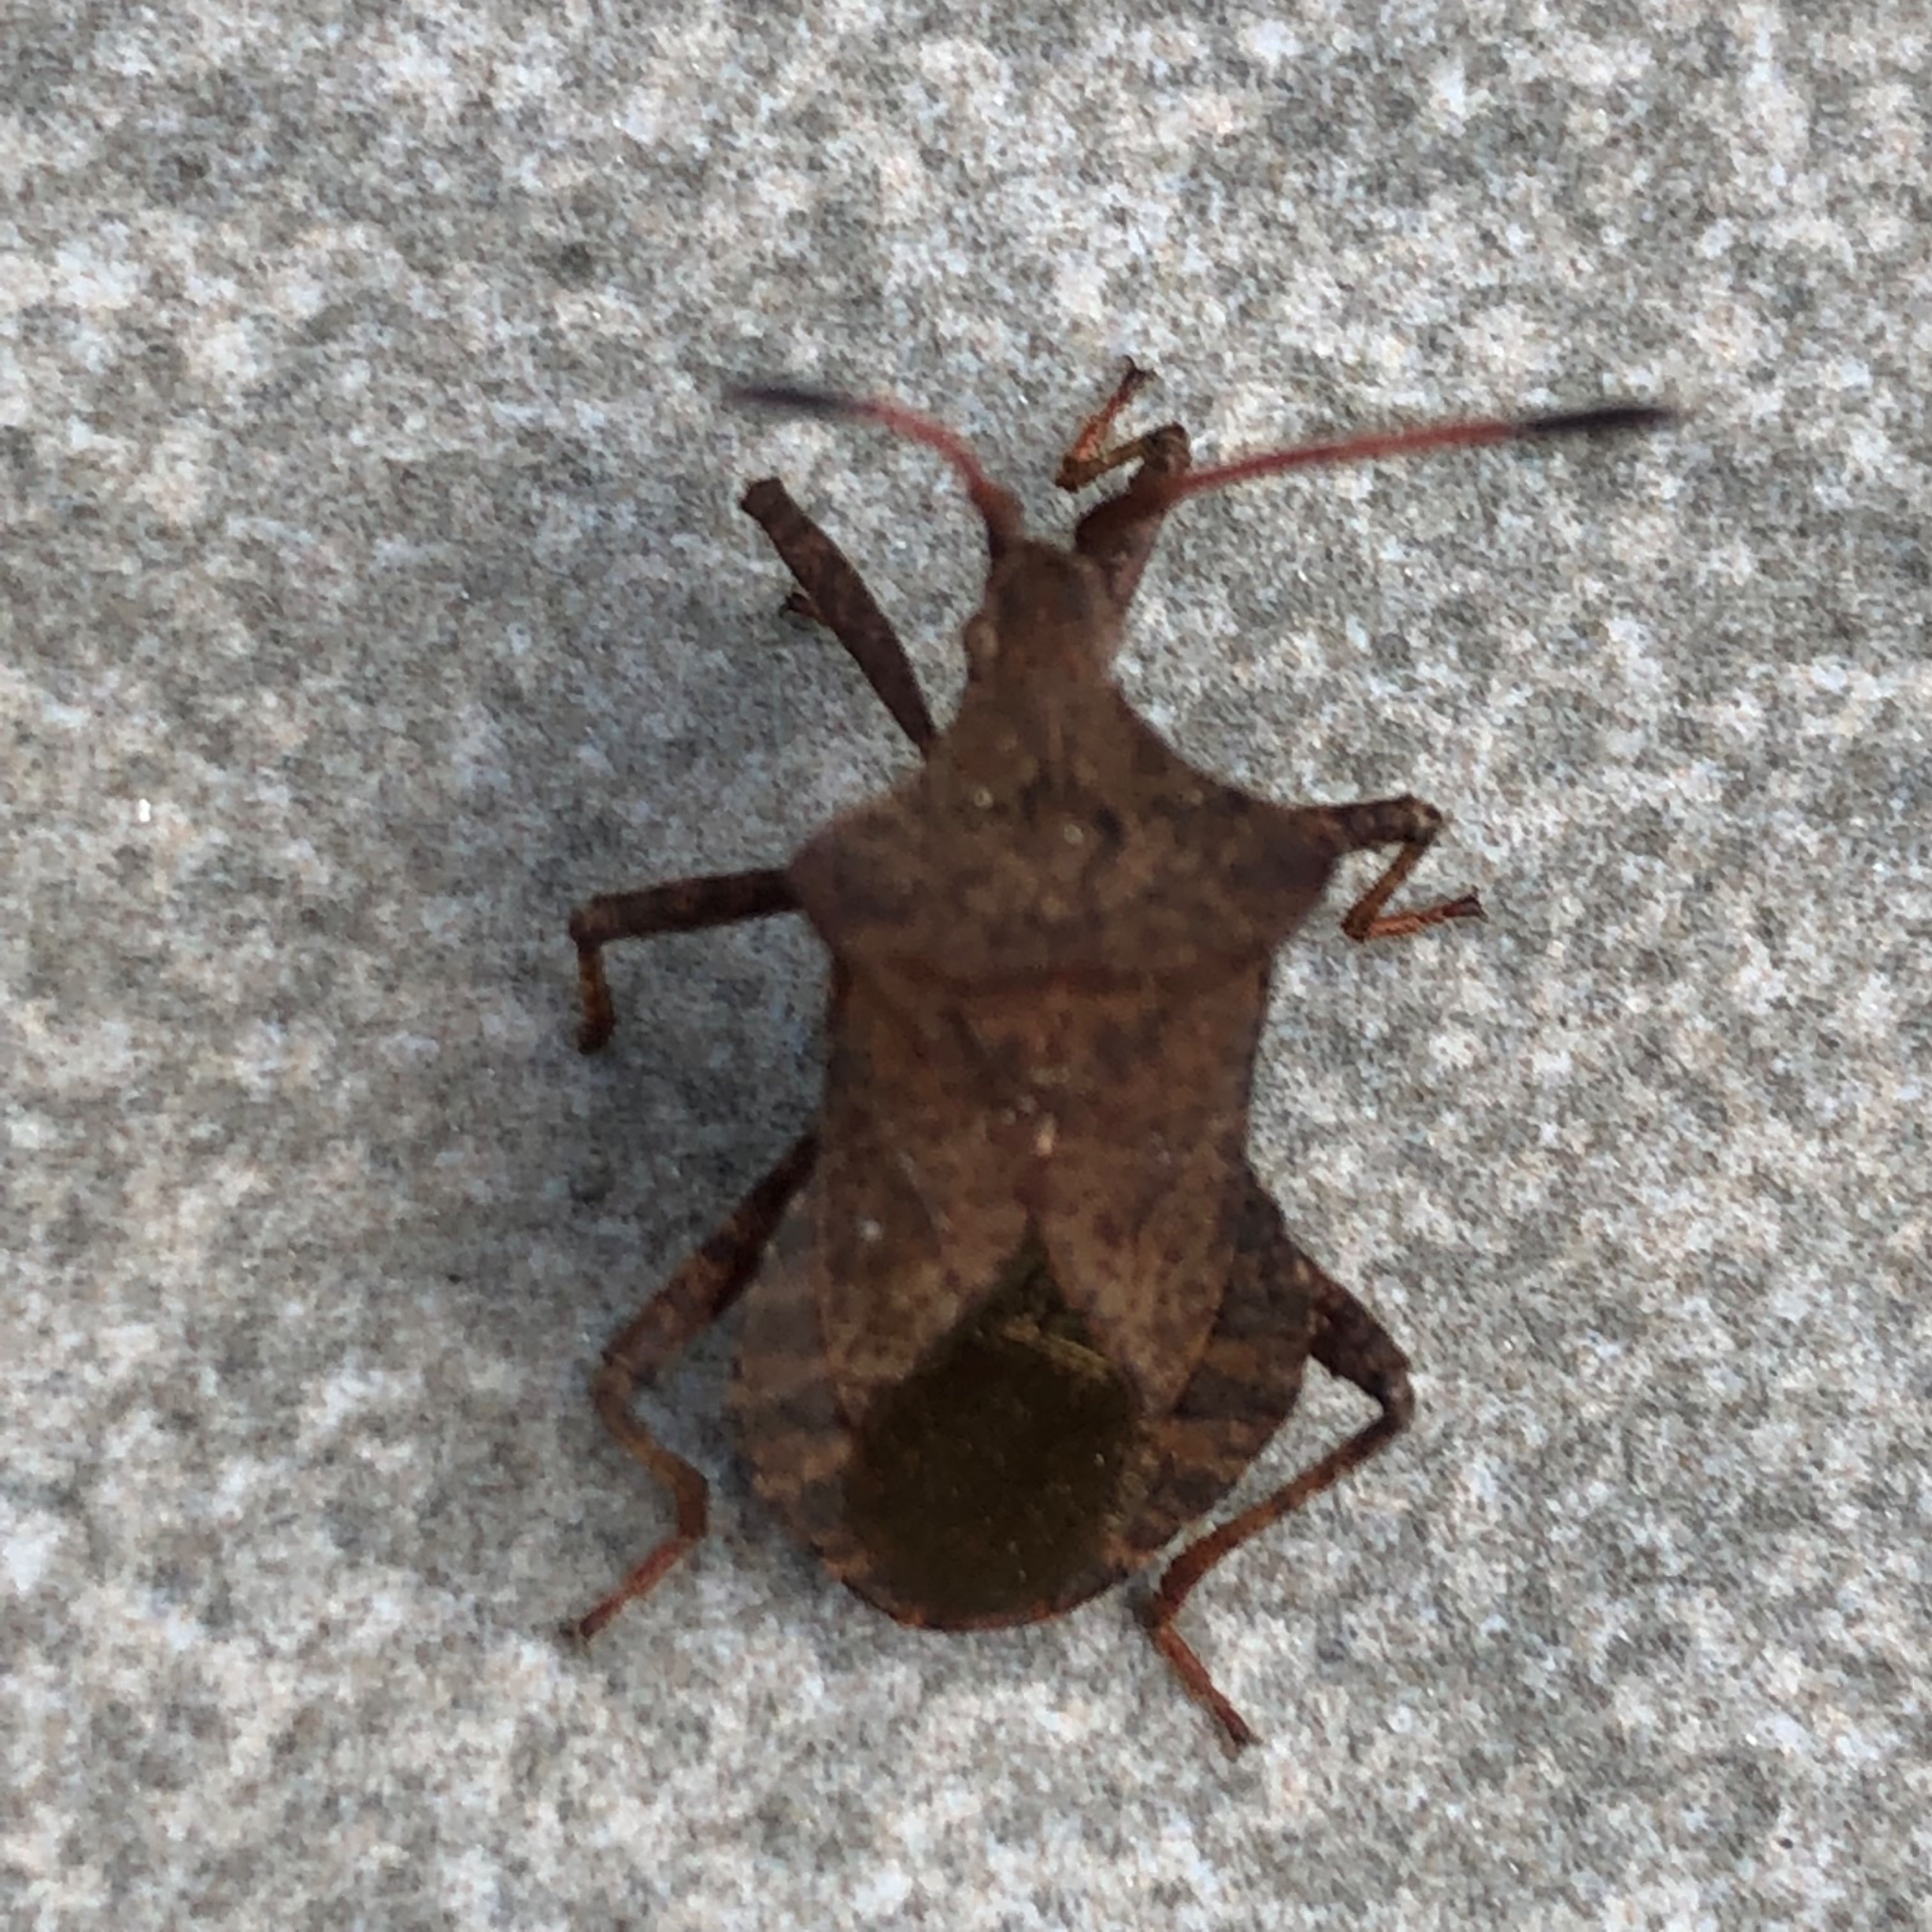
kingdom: Animalia
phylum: Arthropoda
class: Insecta
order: Hemiptera
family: Coreidae
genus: Coreus
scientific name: Coreus marginatus
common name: Skræppetæge
